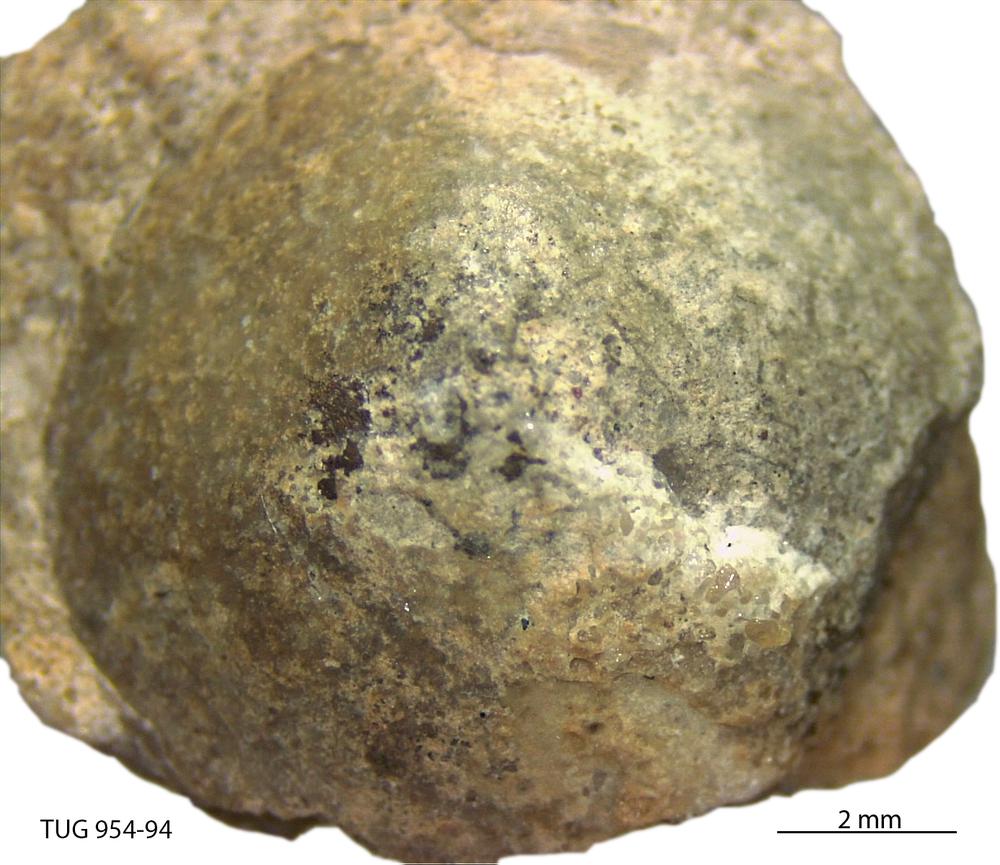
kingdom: Animalia
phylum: Mollusca
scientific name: Mollusca
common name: Mollusca
